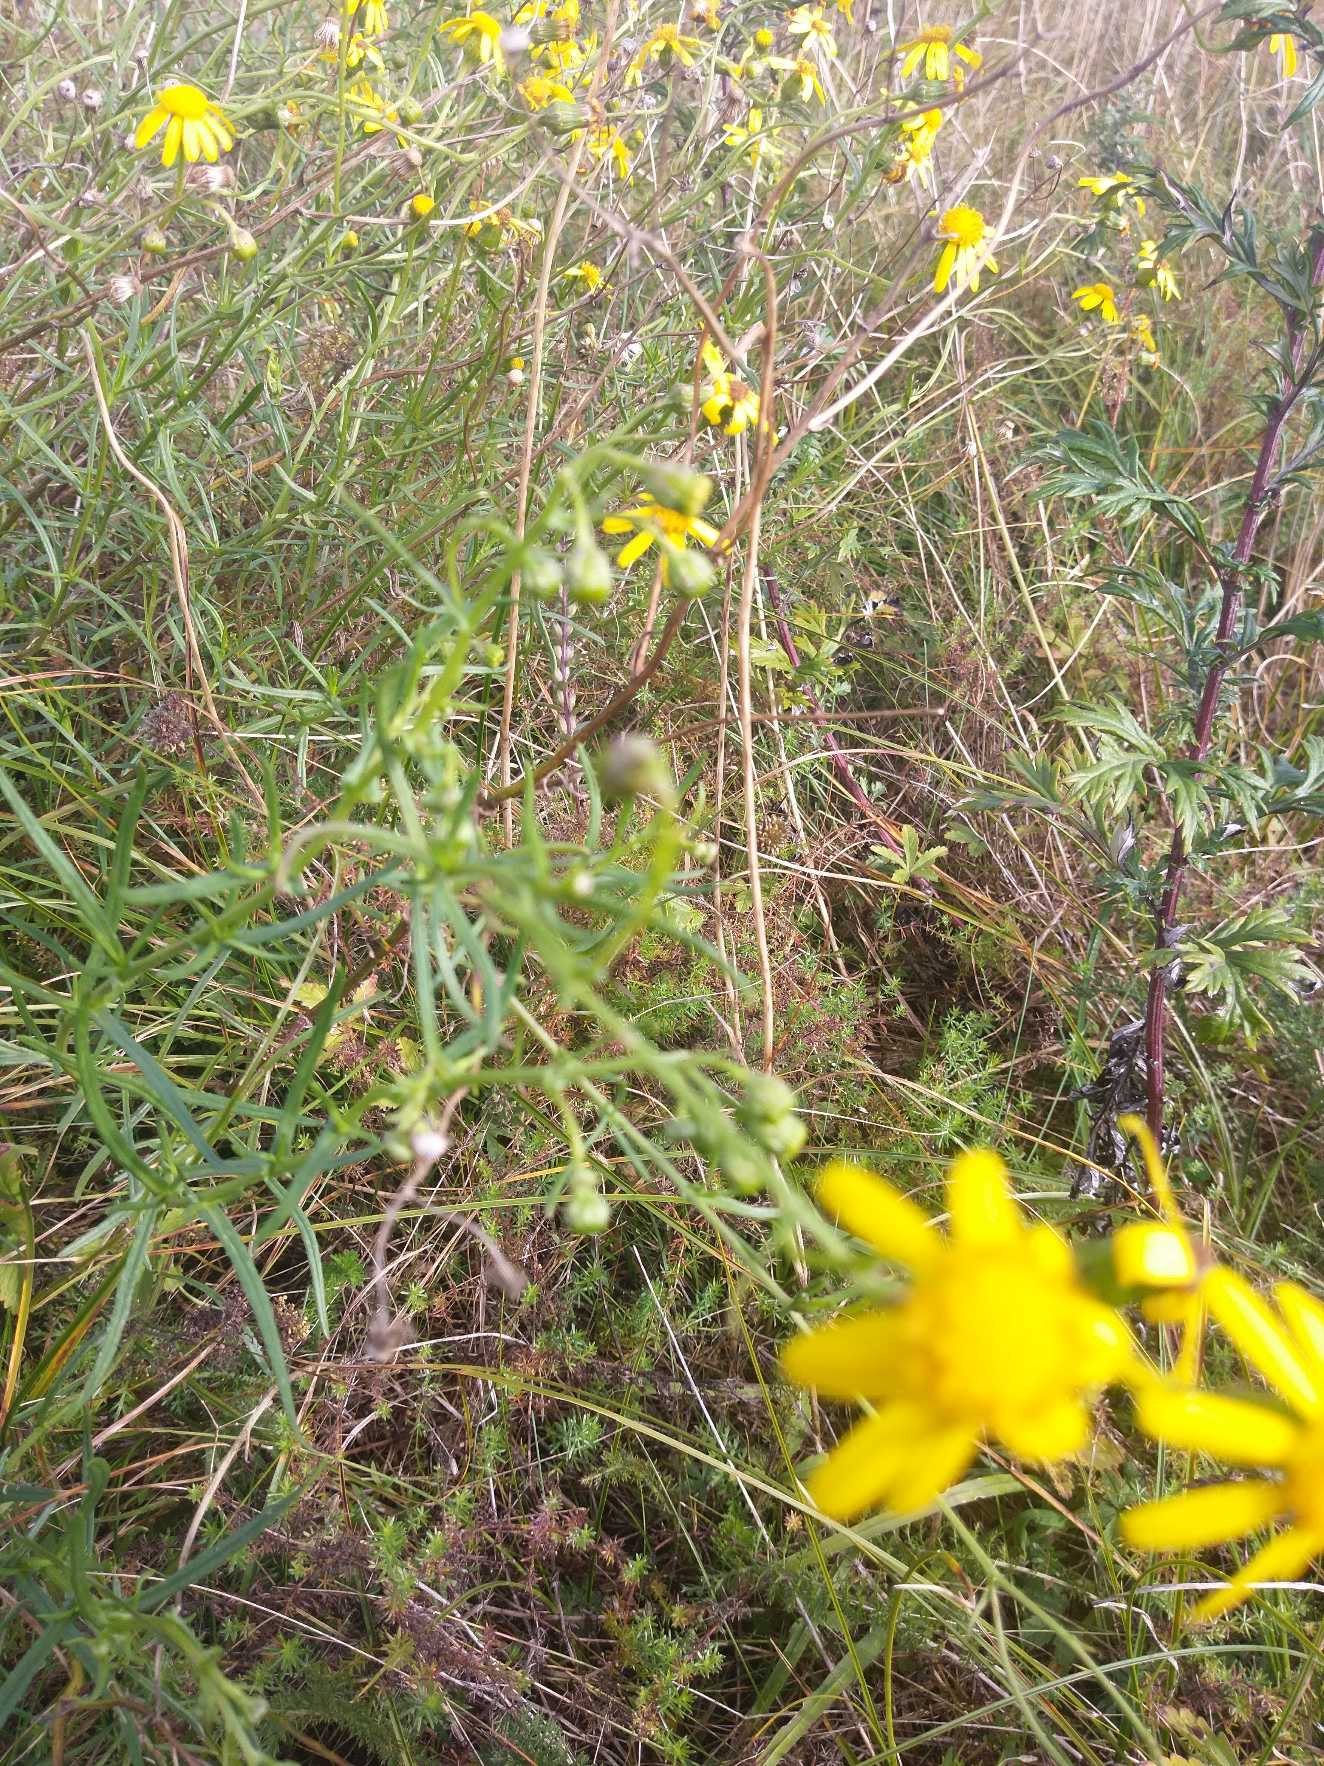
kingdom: Plantae
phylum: Tracheophyta
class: Magnoliopsida
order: Asterales
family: Asteraceae
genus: Senecio
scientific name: Senecio inaequidens
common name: Smalbladet brandbæger
